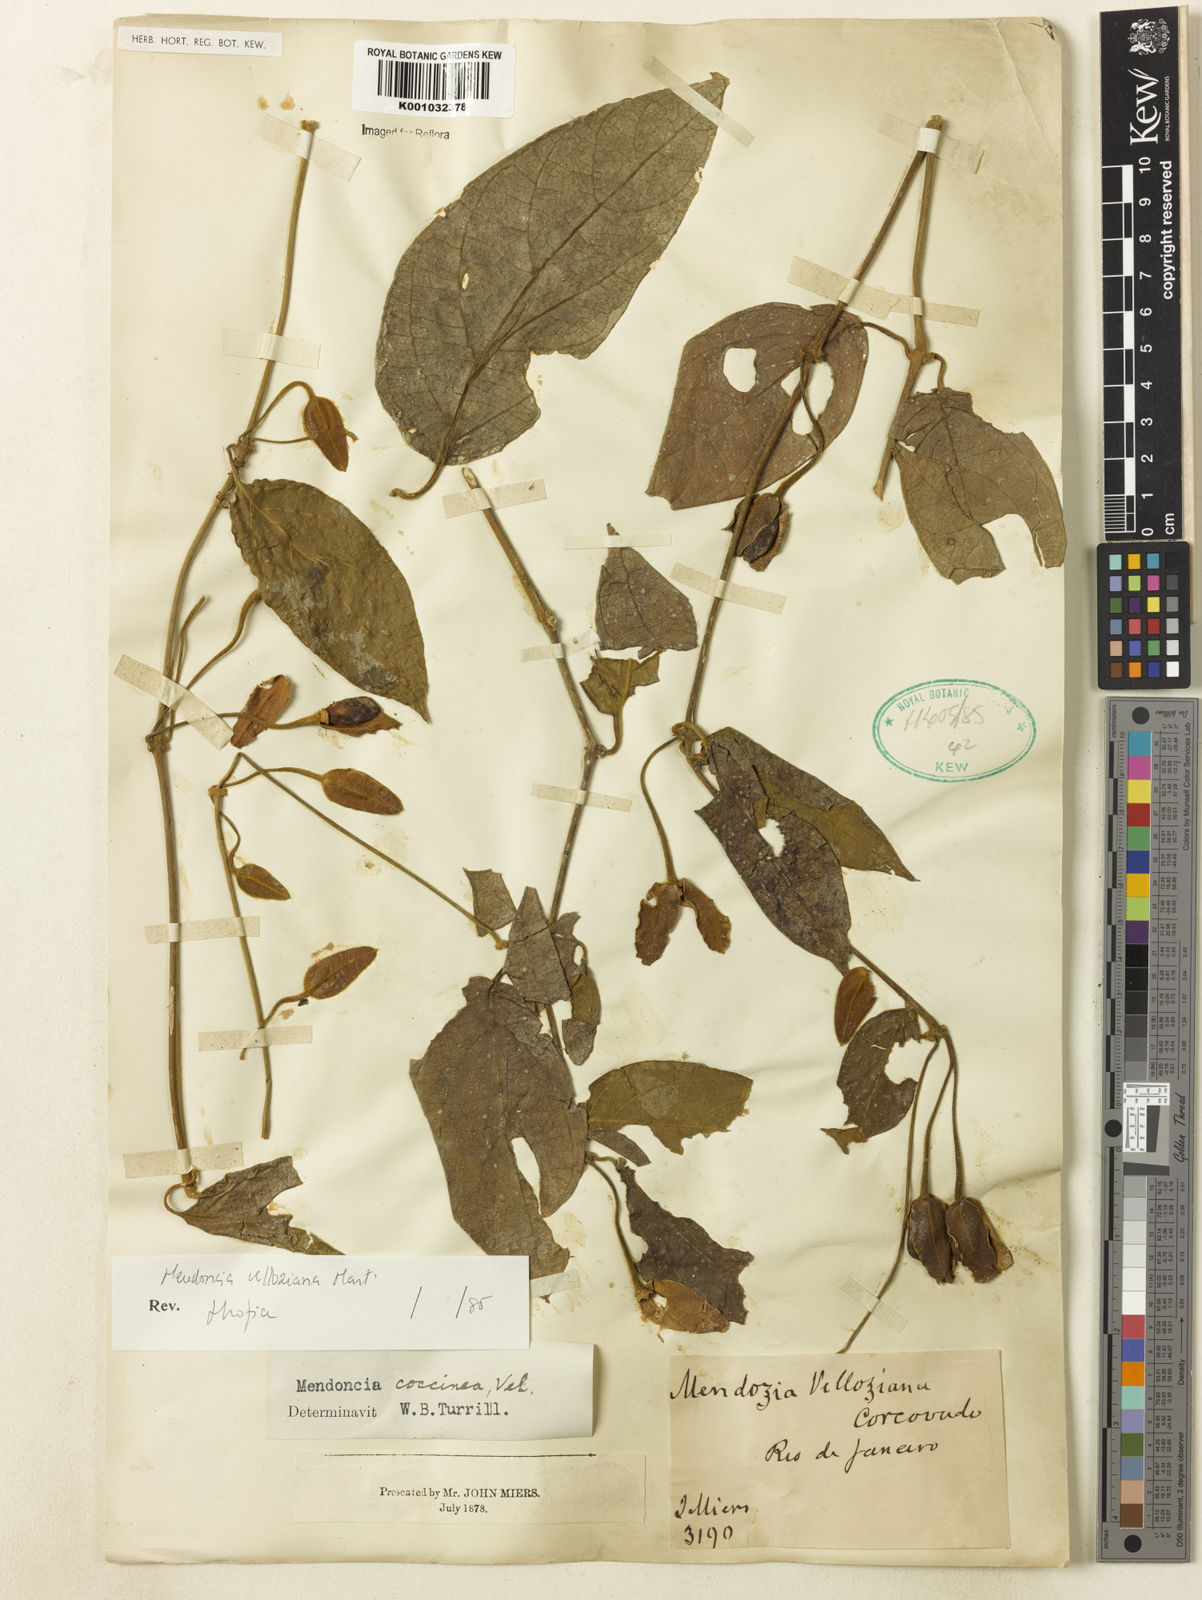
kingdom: Plantae
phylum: Tracheophyta
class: Magnoliopsida
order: Lamiales
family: Acanthaceae
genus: Mendoncia
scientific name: Mendoncia velloziana
